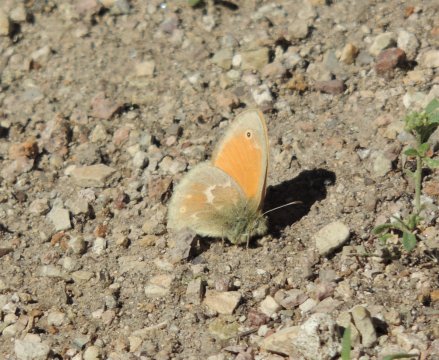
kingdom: Animalia
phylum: Arthropoda
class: Insecta
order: Lepidoptera
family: Nymphalidae
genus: Coenonympha
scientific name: Coenonympha tullia
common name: Large Heath
